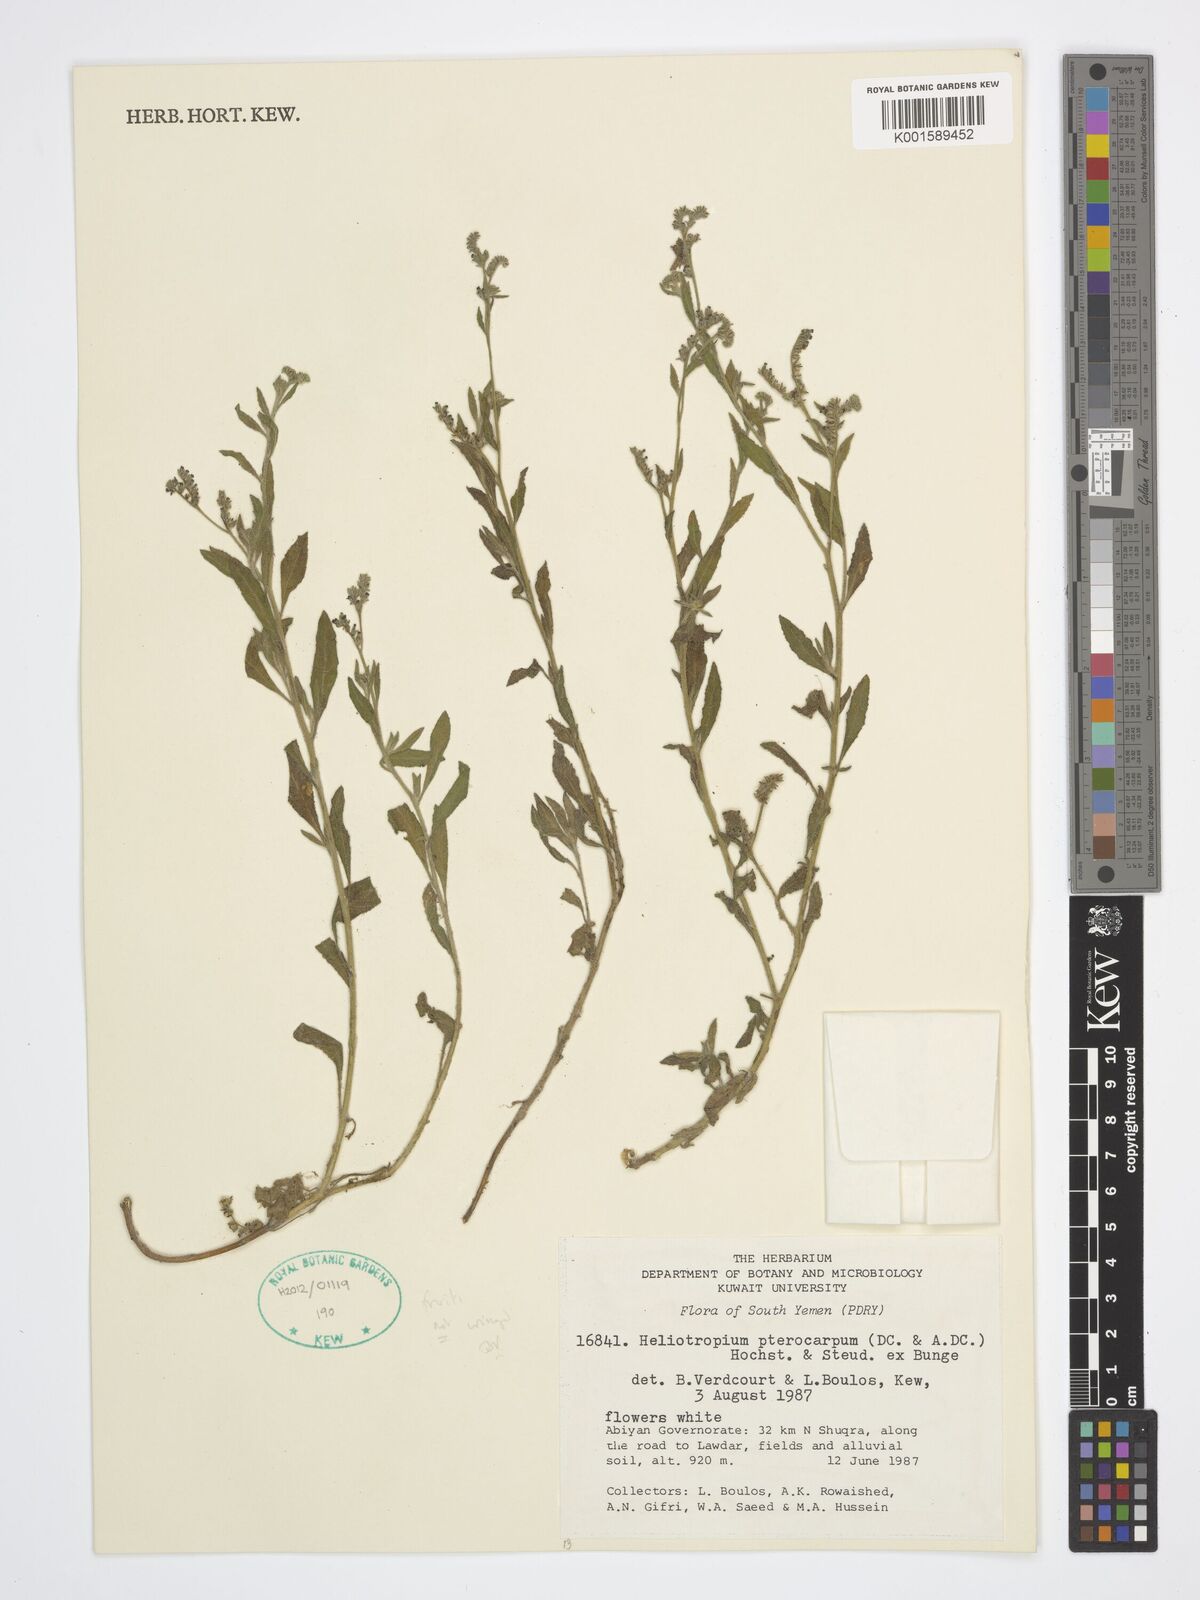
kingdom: Plantae
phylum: Tracheophyta
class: Magnoliopsida
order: Boraginales
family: Heliotropiaceae
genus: Heliotropium
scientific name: Heliotropium pterocarpum
